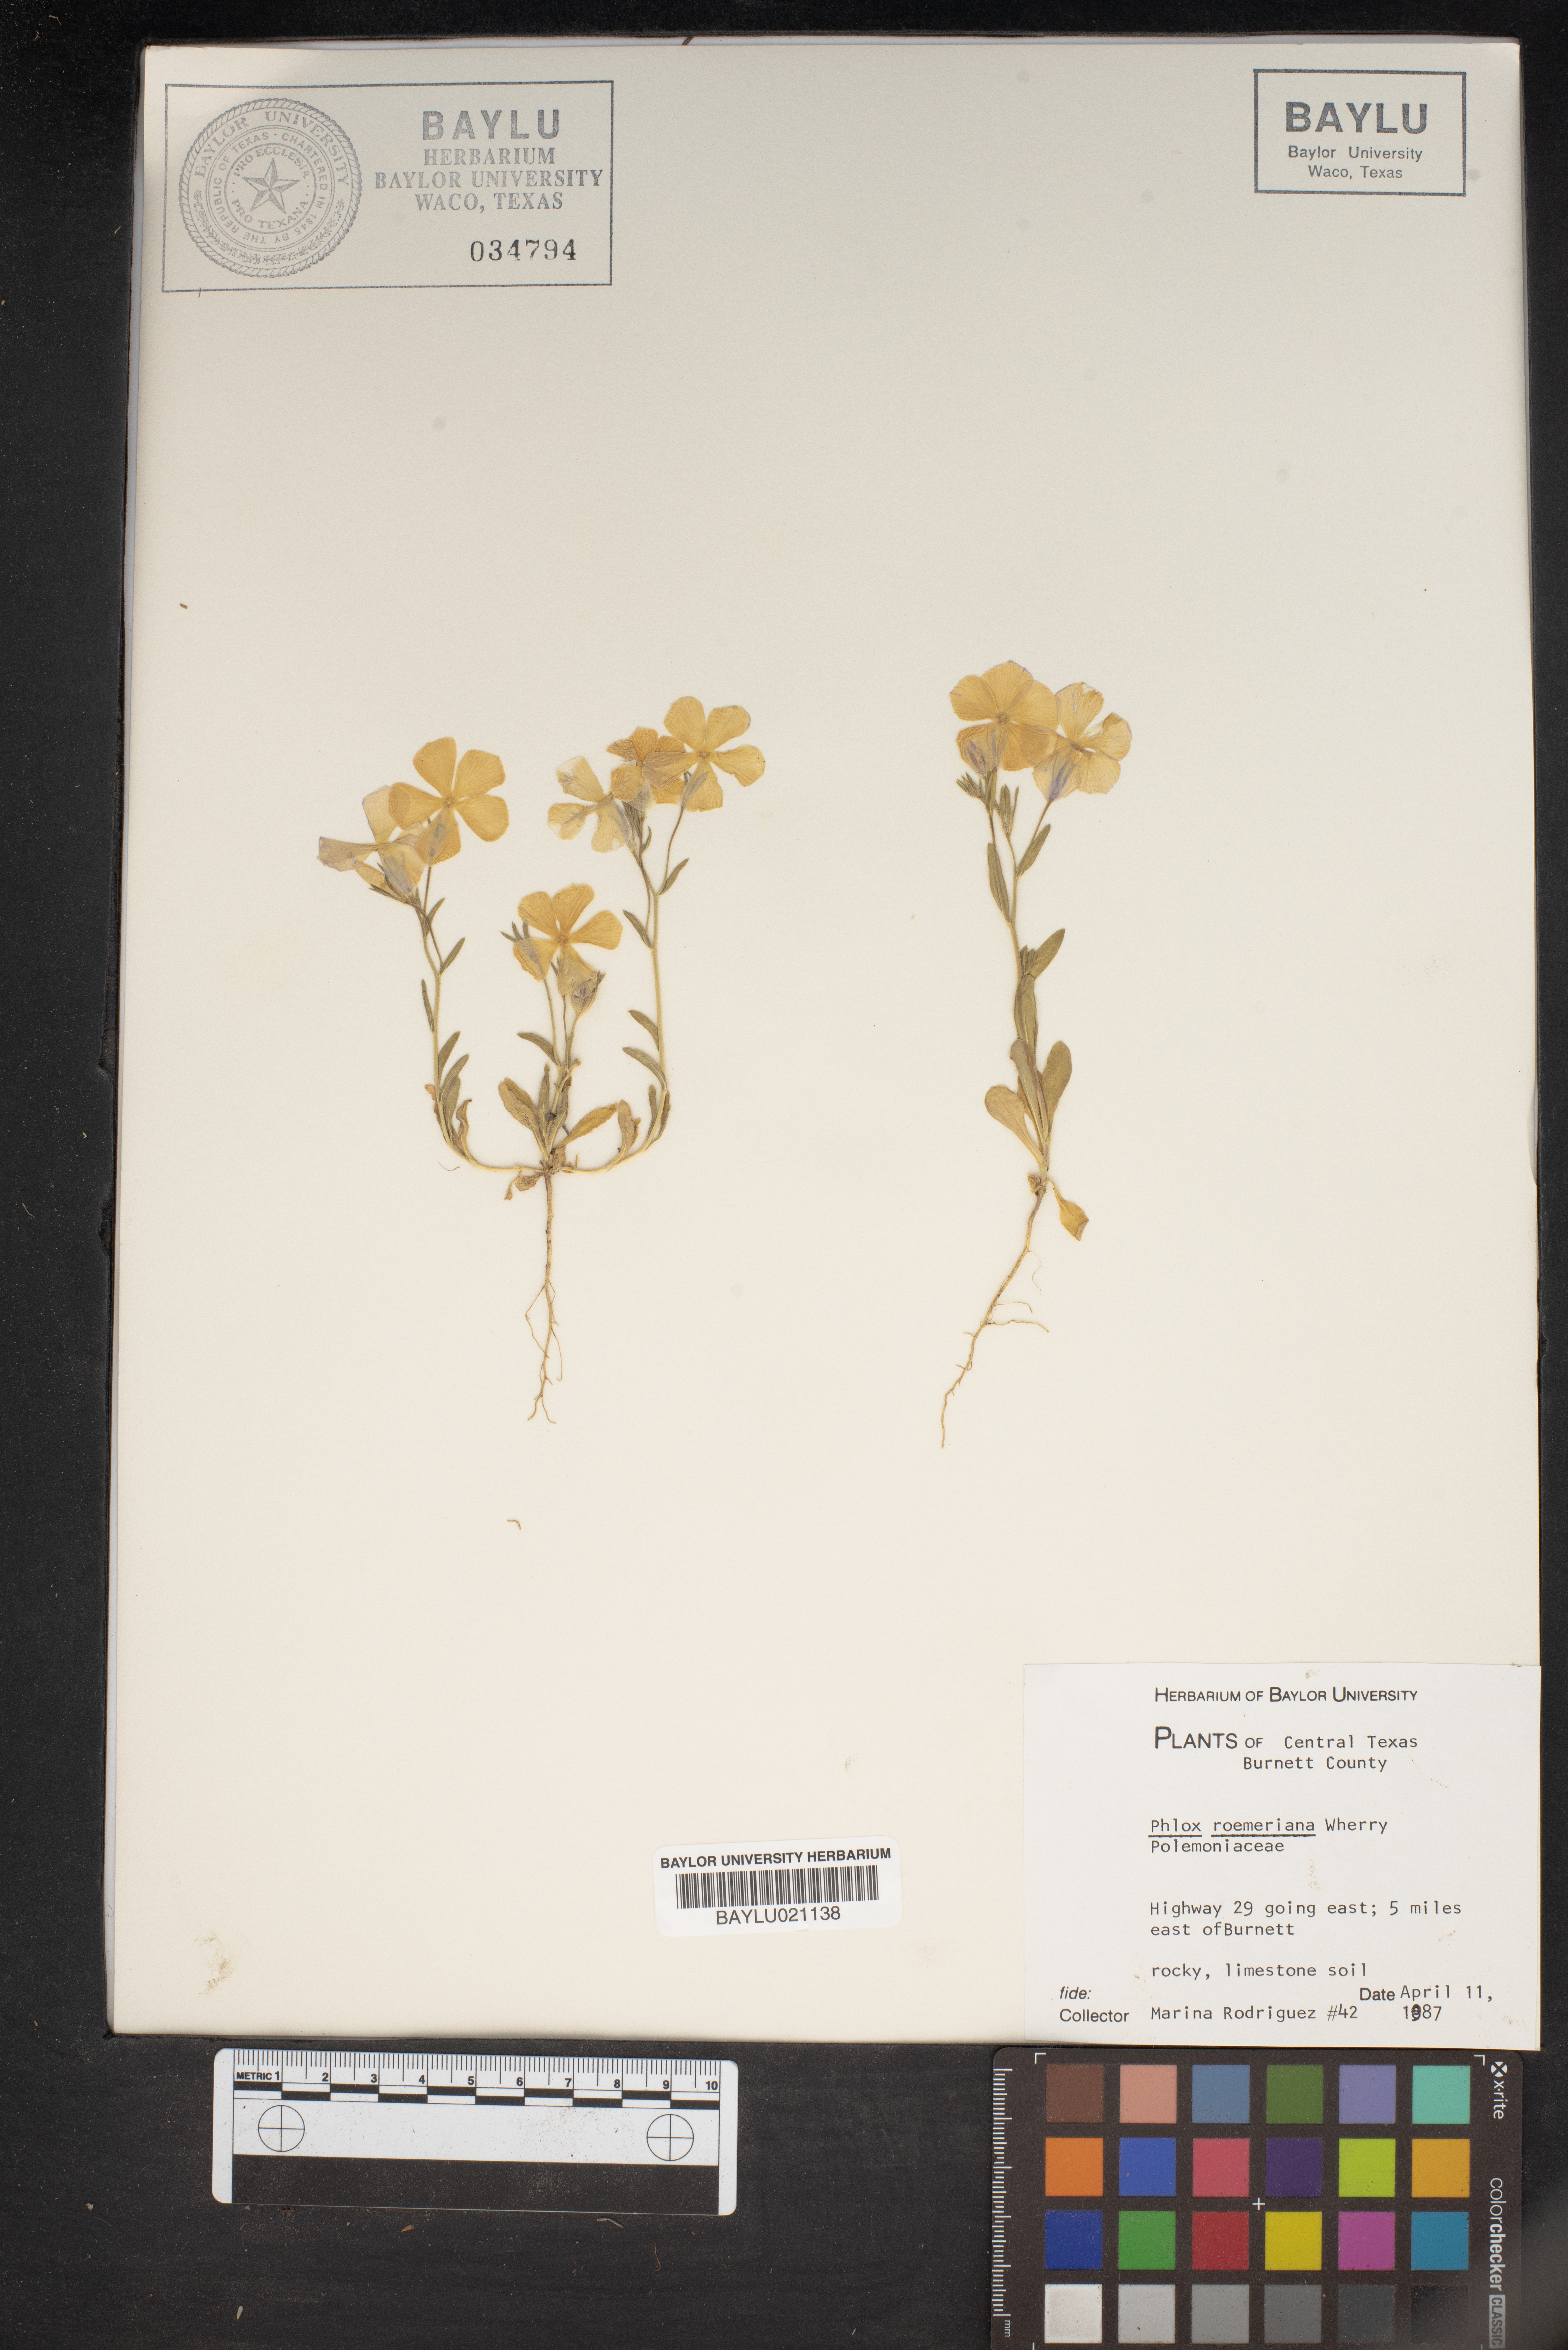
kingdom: Plantae
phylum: Tracheophyta
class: Magnoliopsida
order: Ericales
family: Polemoniaceae
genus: Phlox
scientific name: Phlox roemeriana
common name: Roemer's phlox
